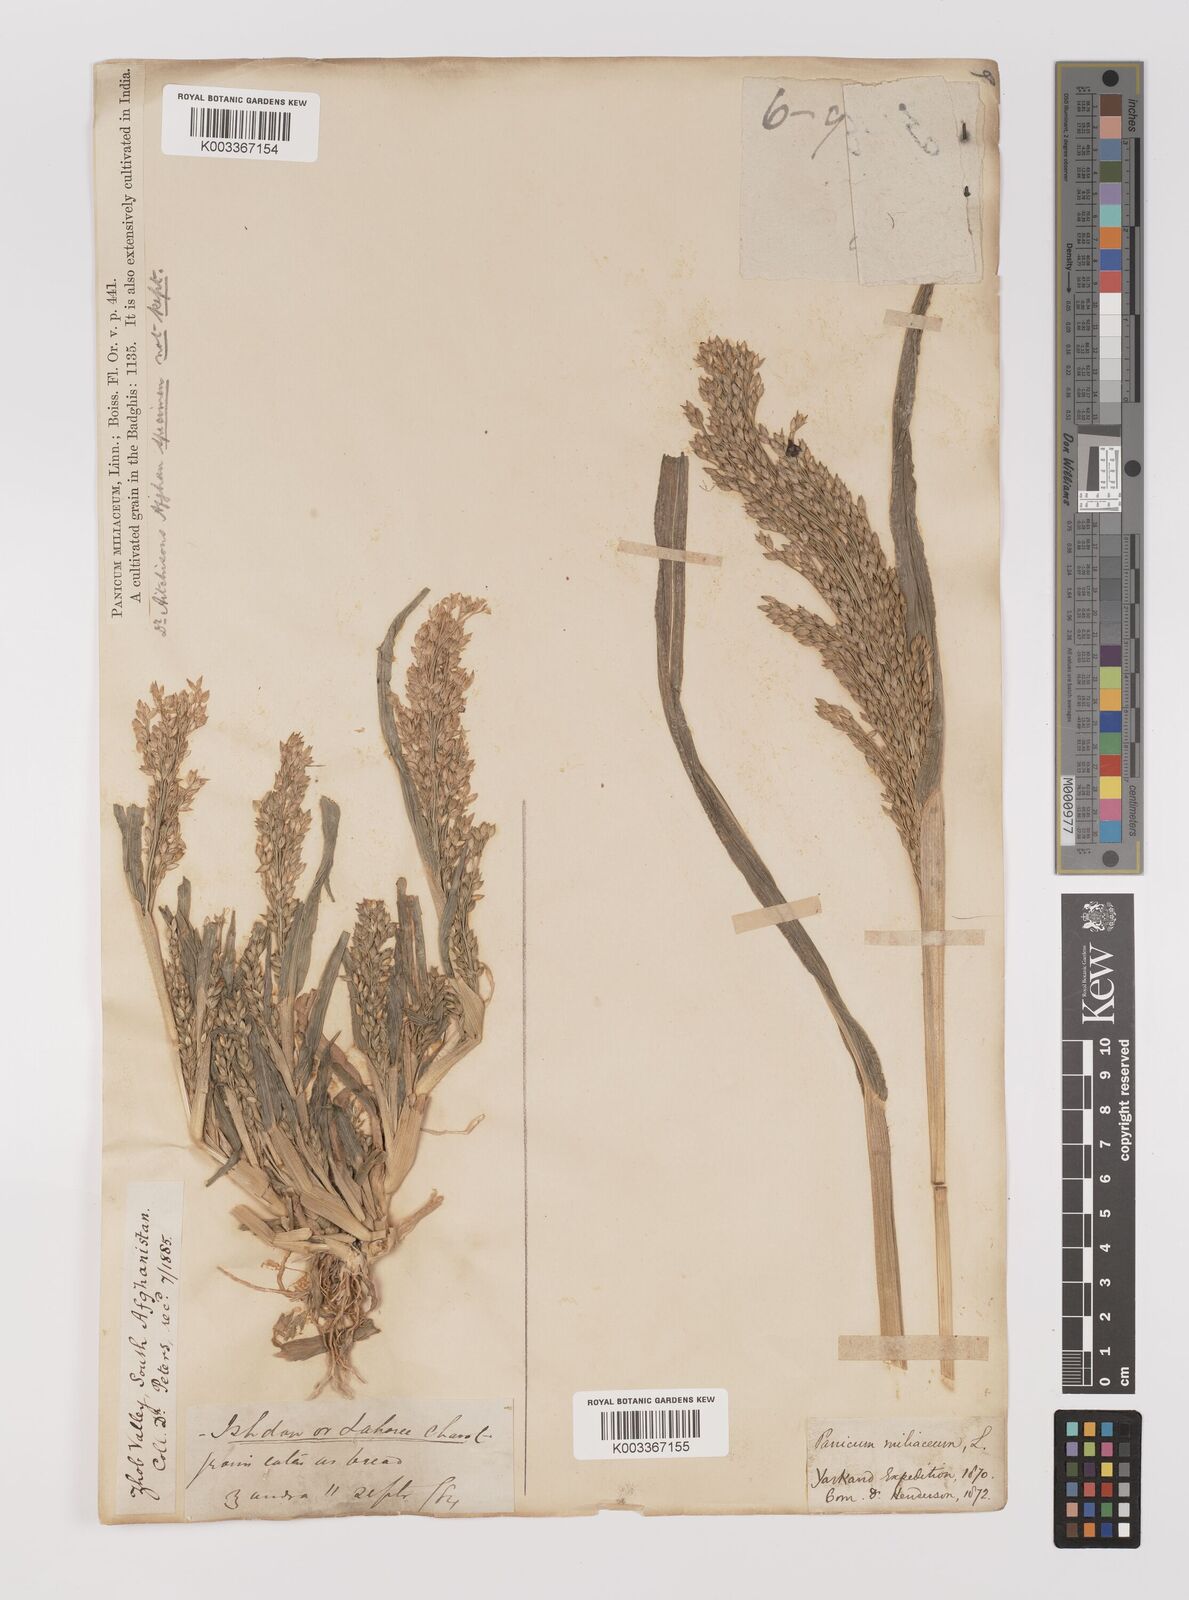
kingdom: Plantae
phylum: Tracheophyta
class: Liliopsida
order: Poales
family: Poaceae
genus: Panicum
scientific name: Panicum miliaceum
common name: Common millet
